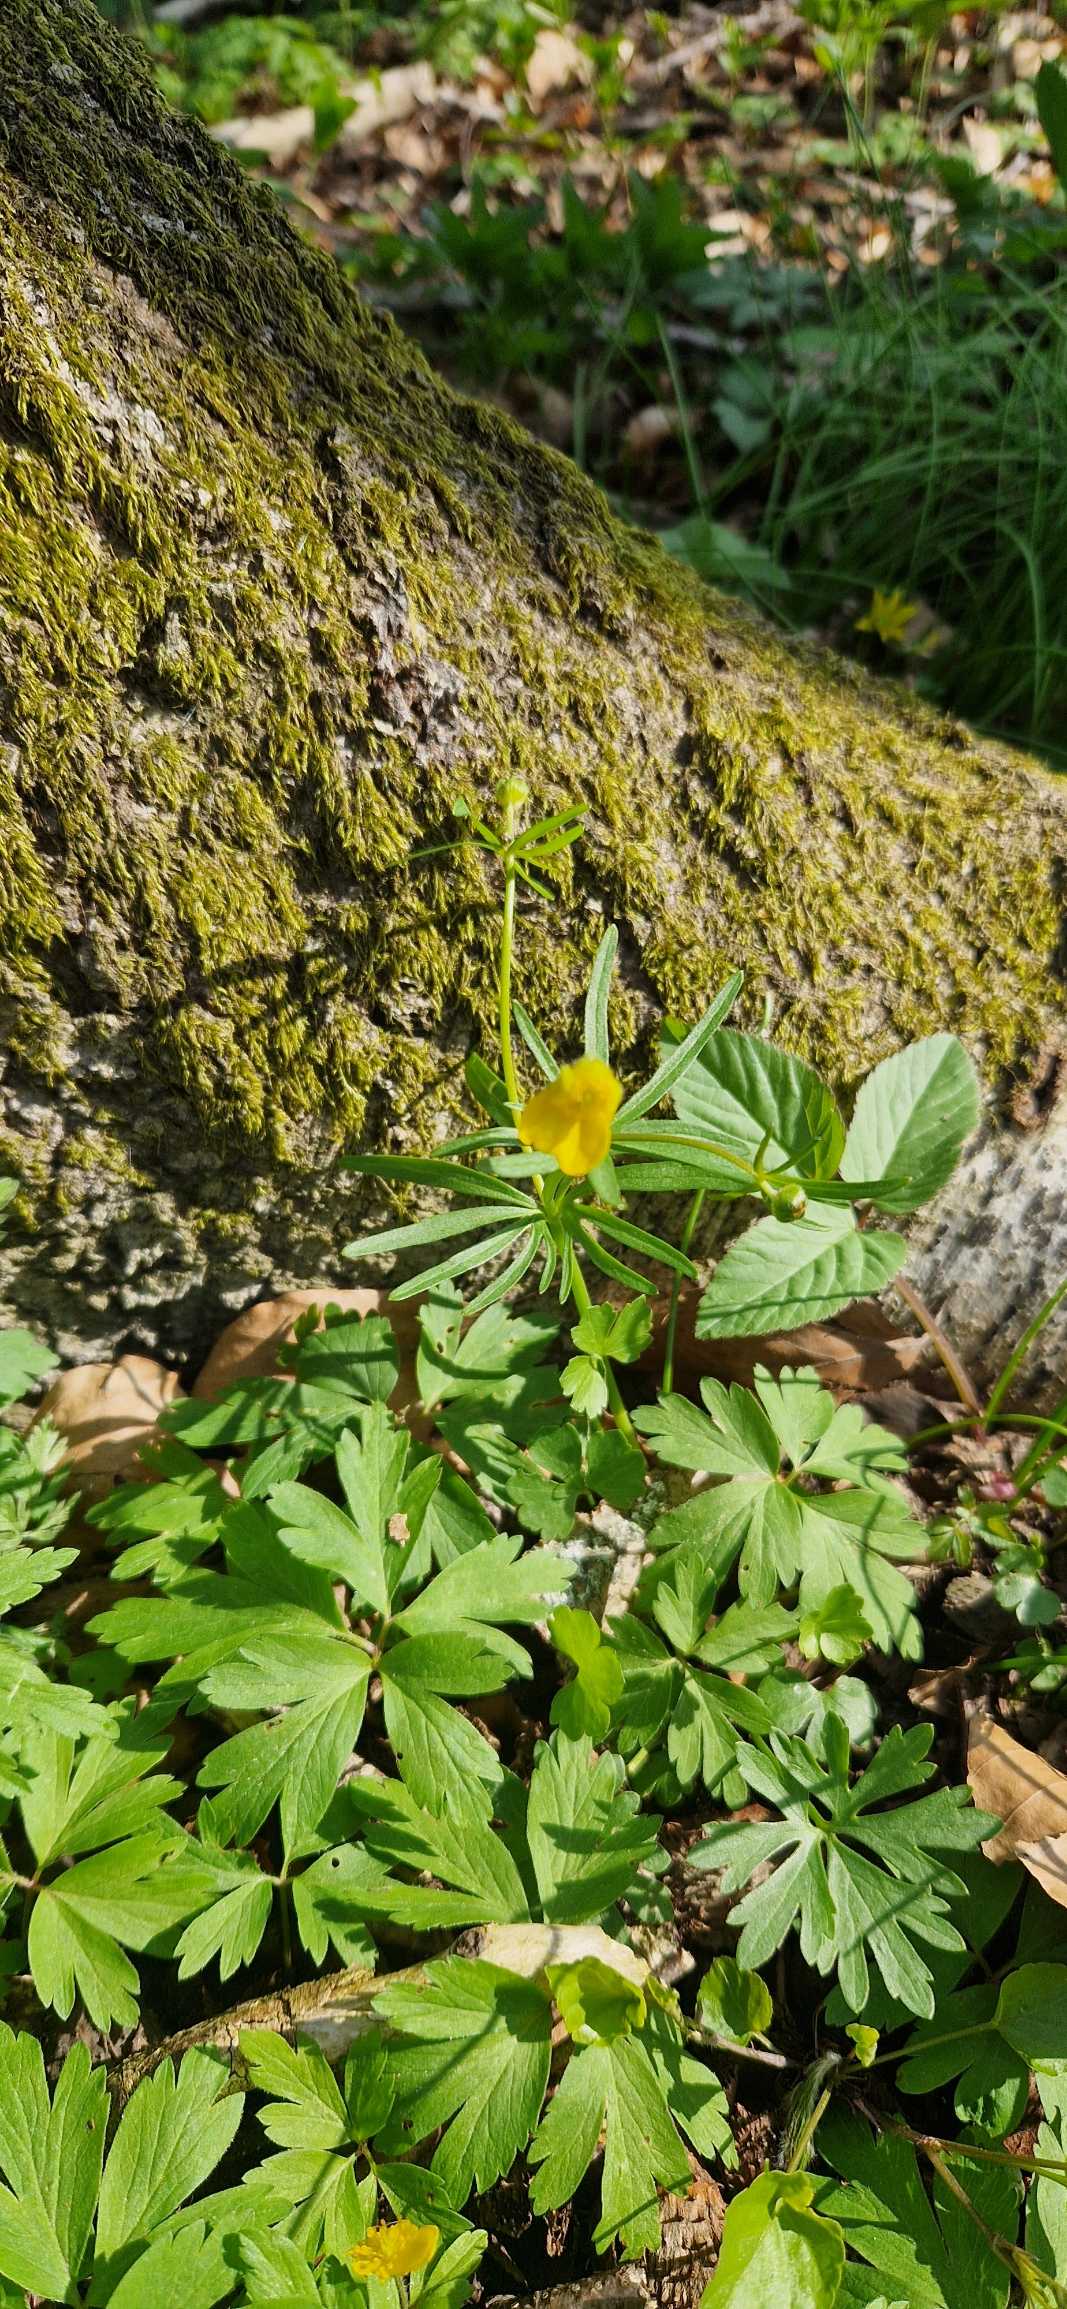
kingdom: Plantae
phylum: Tracheophyta
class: Magnoliopsida
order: Ranunculales
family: Ranunculaceae
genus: Ranunculus
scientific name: Ranunculus auricomus
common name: Nyrebladet ranunkel
